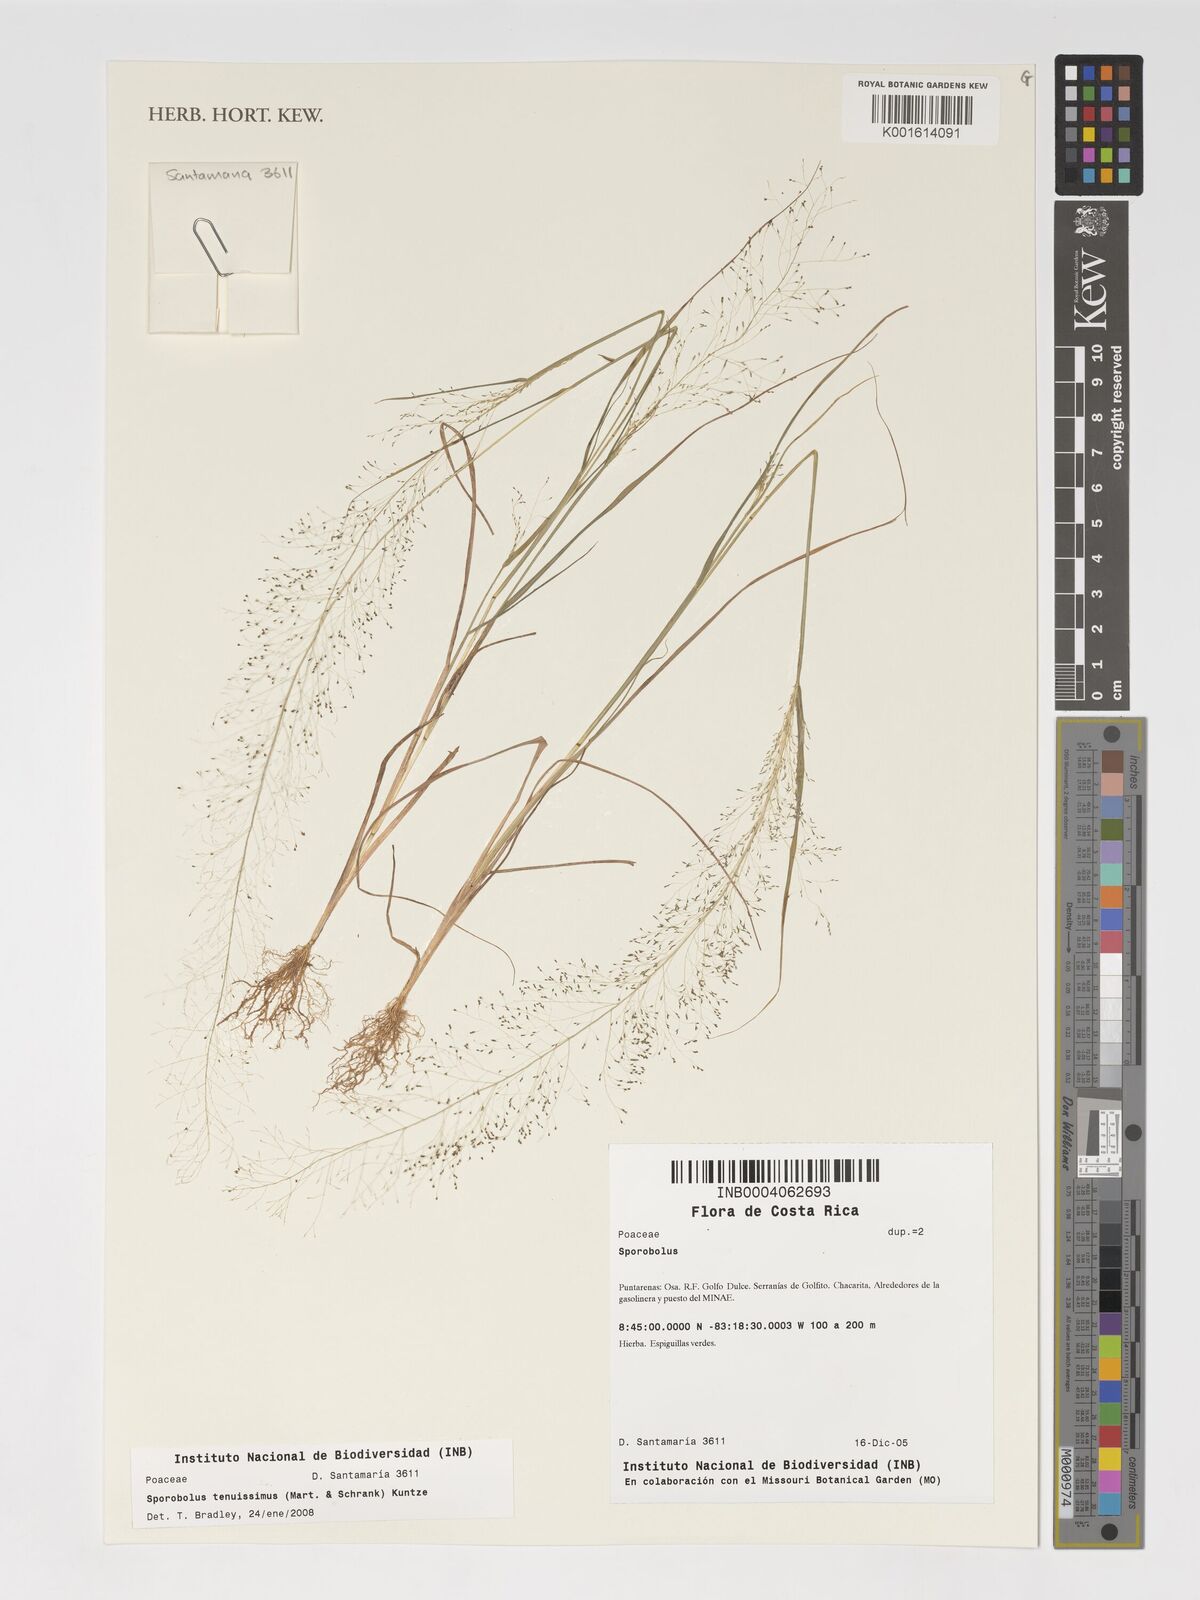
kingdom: Plantae
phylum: Tracheophyta
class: Liliopsida
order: Poales
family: Poaceae
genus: Sporobolus
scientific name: Sporobolus tenuissimus
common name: Tropical dropseed
